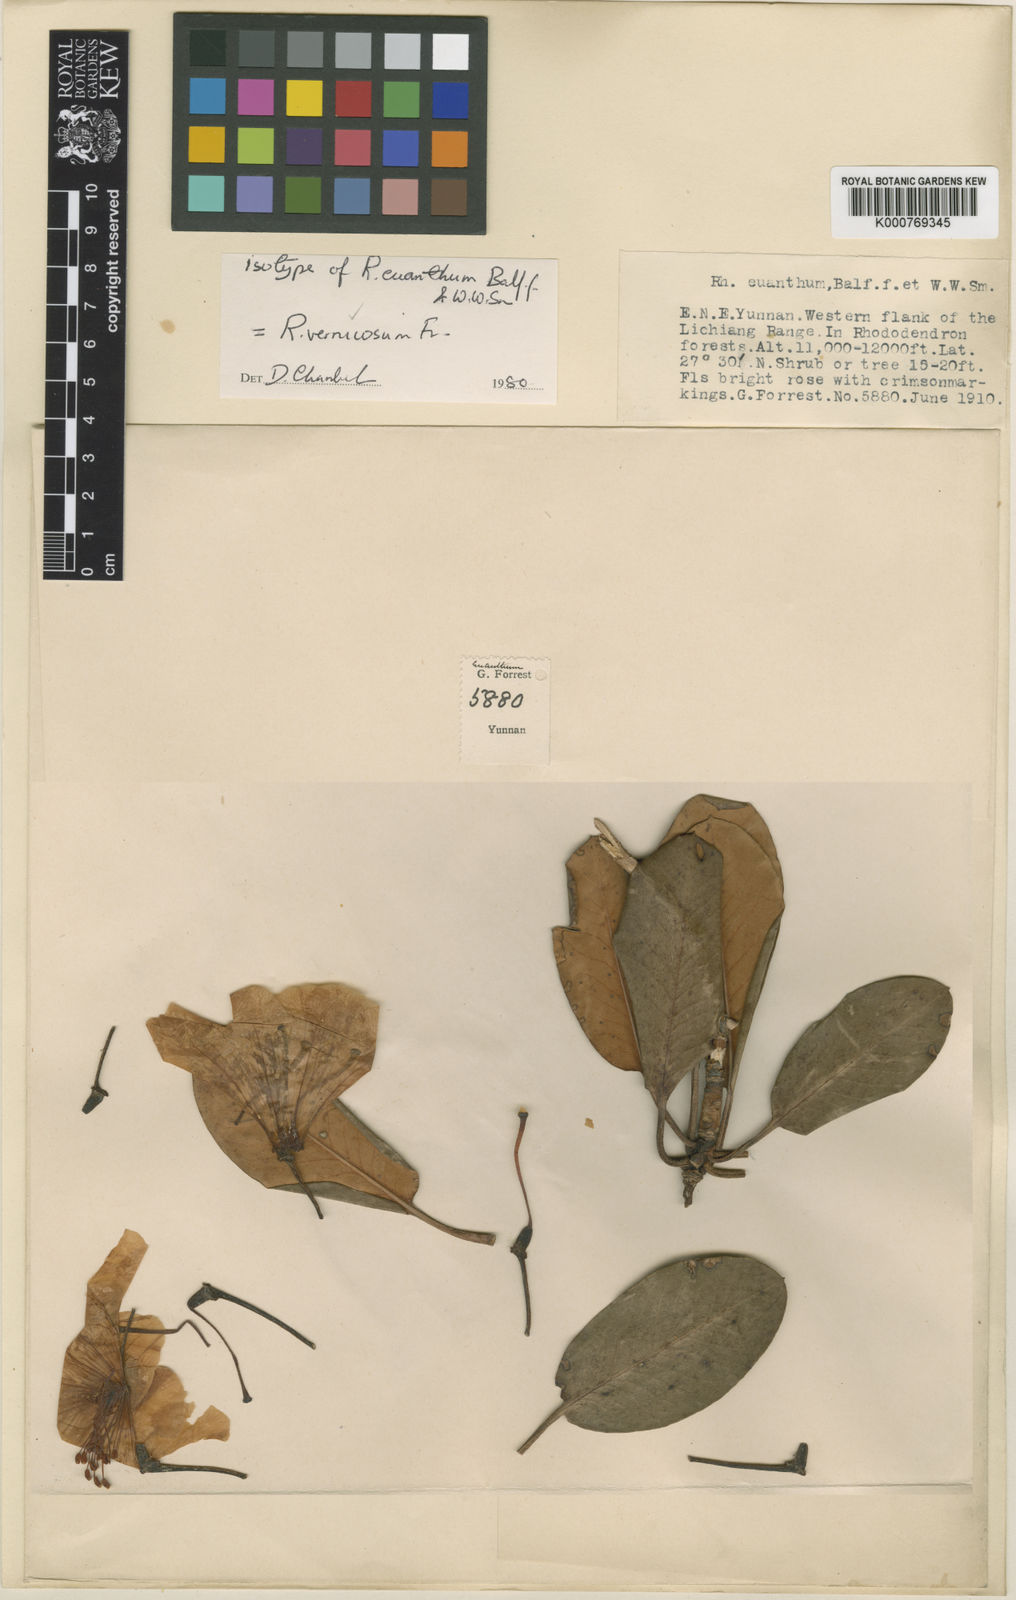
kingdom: Plantae
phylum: Tracheophyta
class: Magnoliopsida
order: Ericales
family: Ericaceae
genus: Rhododendron
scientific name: Rhododendron vernicosum
